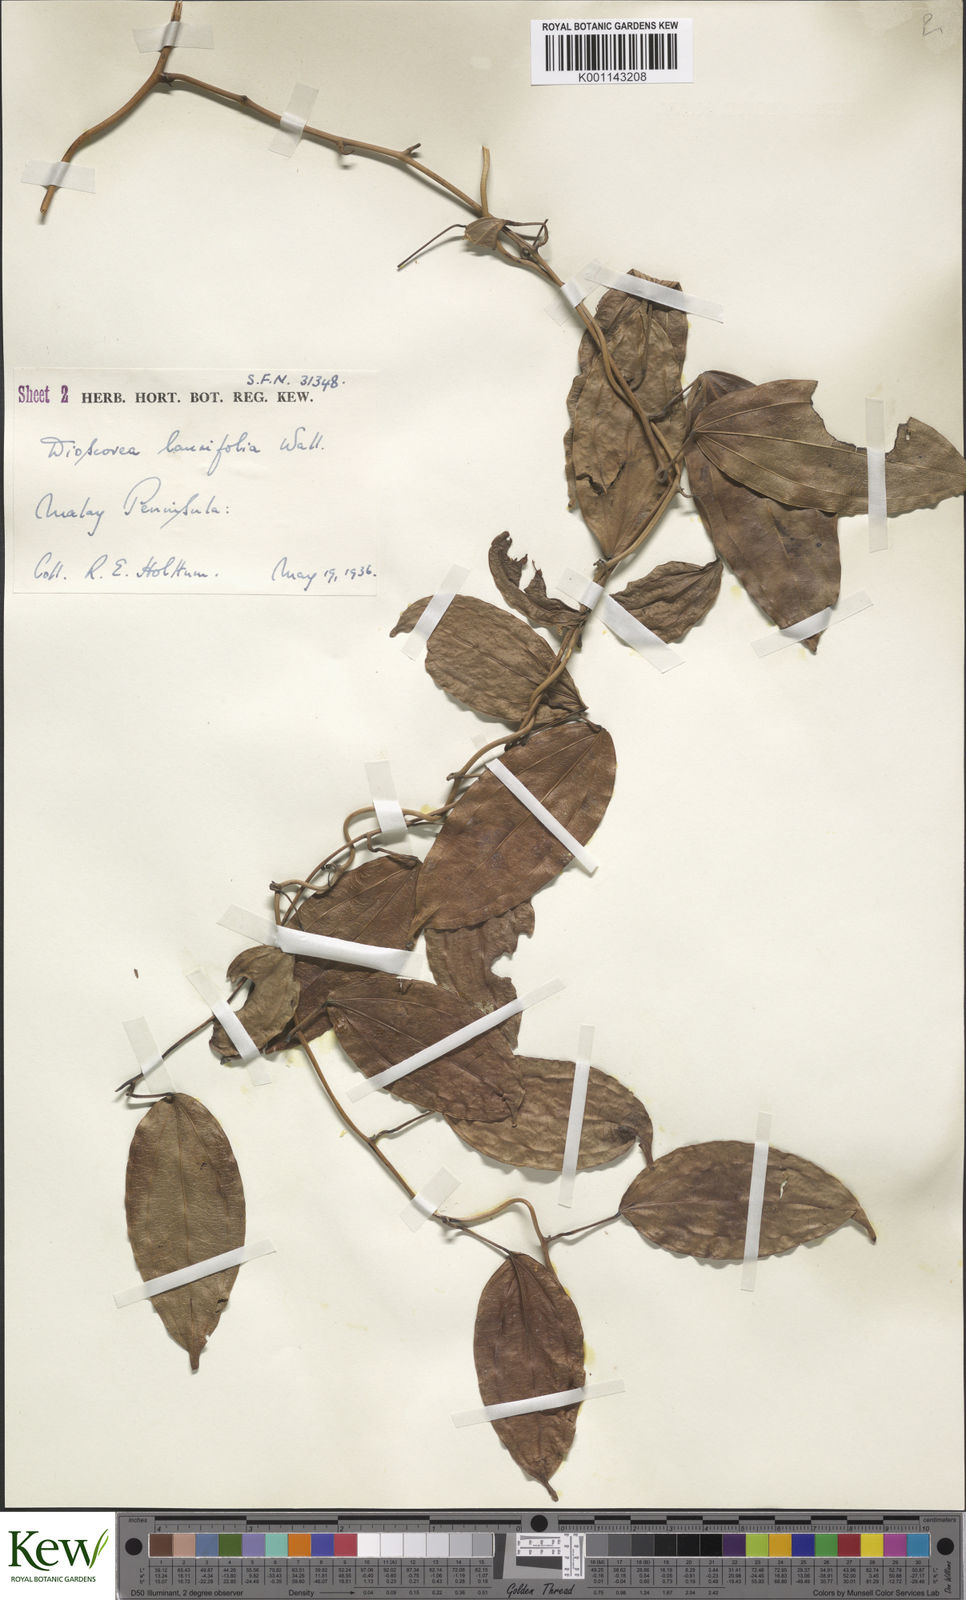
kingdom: Plantae
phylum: Tracheophyta
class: Liliopsida
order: Dioscoreales
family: Dioscoreaceae
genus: Dioscorea
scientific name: Dioscorea laurifolia
